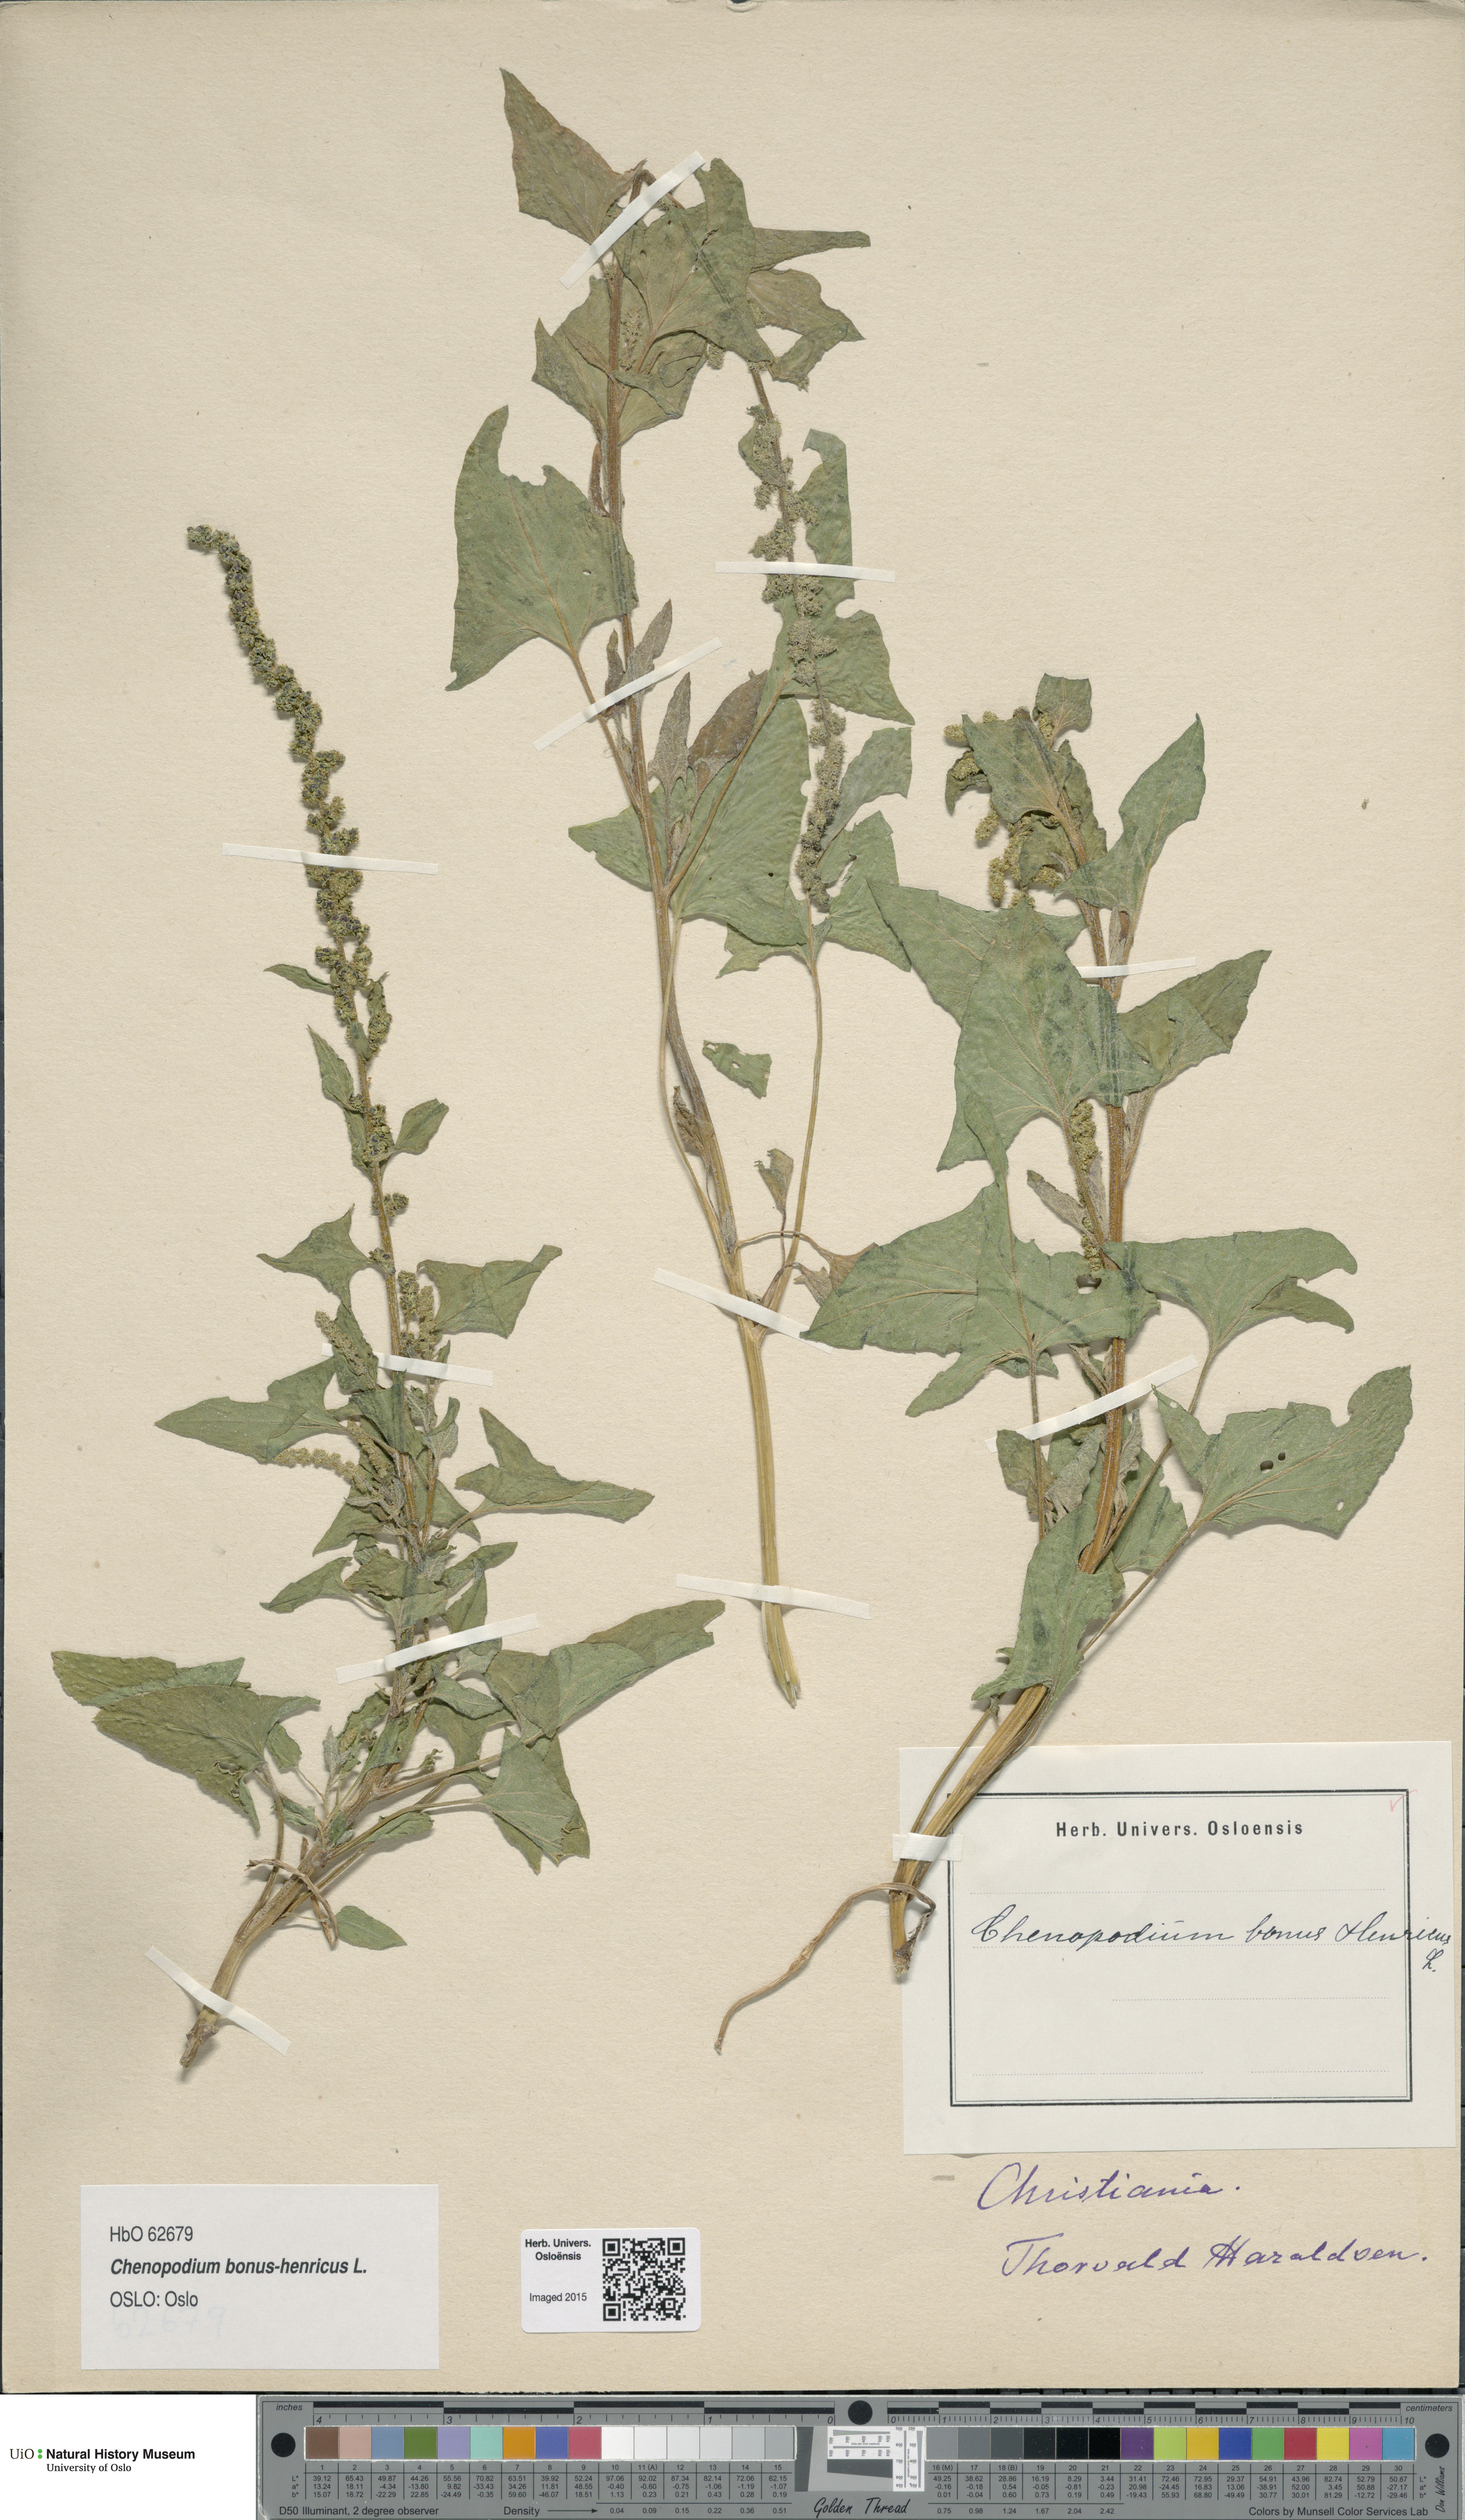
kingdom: Plantae
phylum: Tracheophyta
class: Magnoliopsida
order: Caryophyllales
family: Amaranthaceae
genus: Blitum
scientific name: Blitum bonus-henricus
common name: Good king henry
